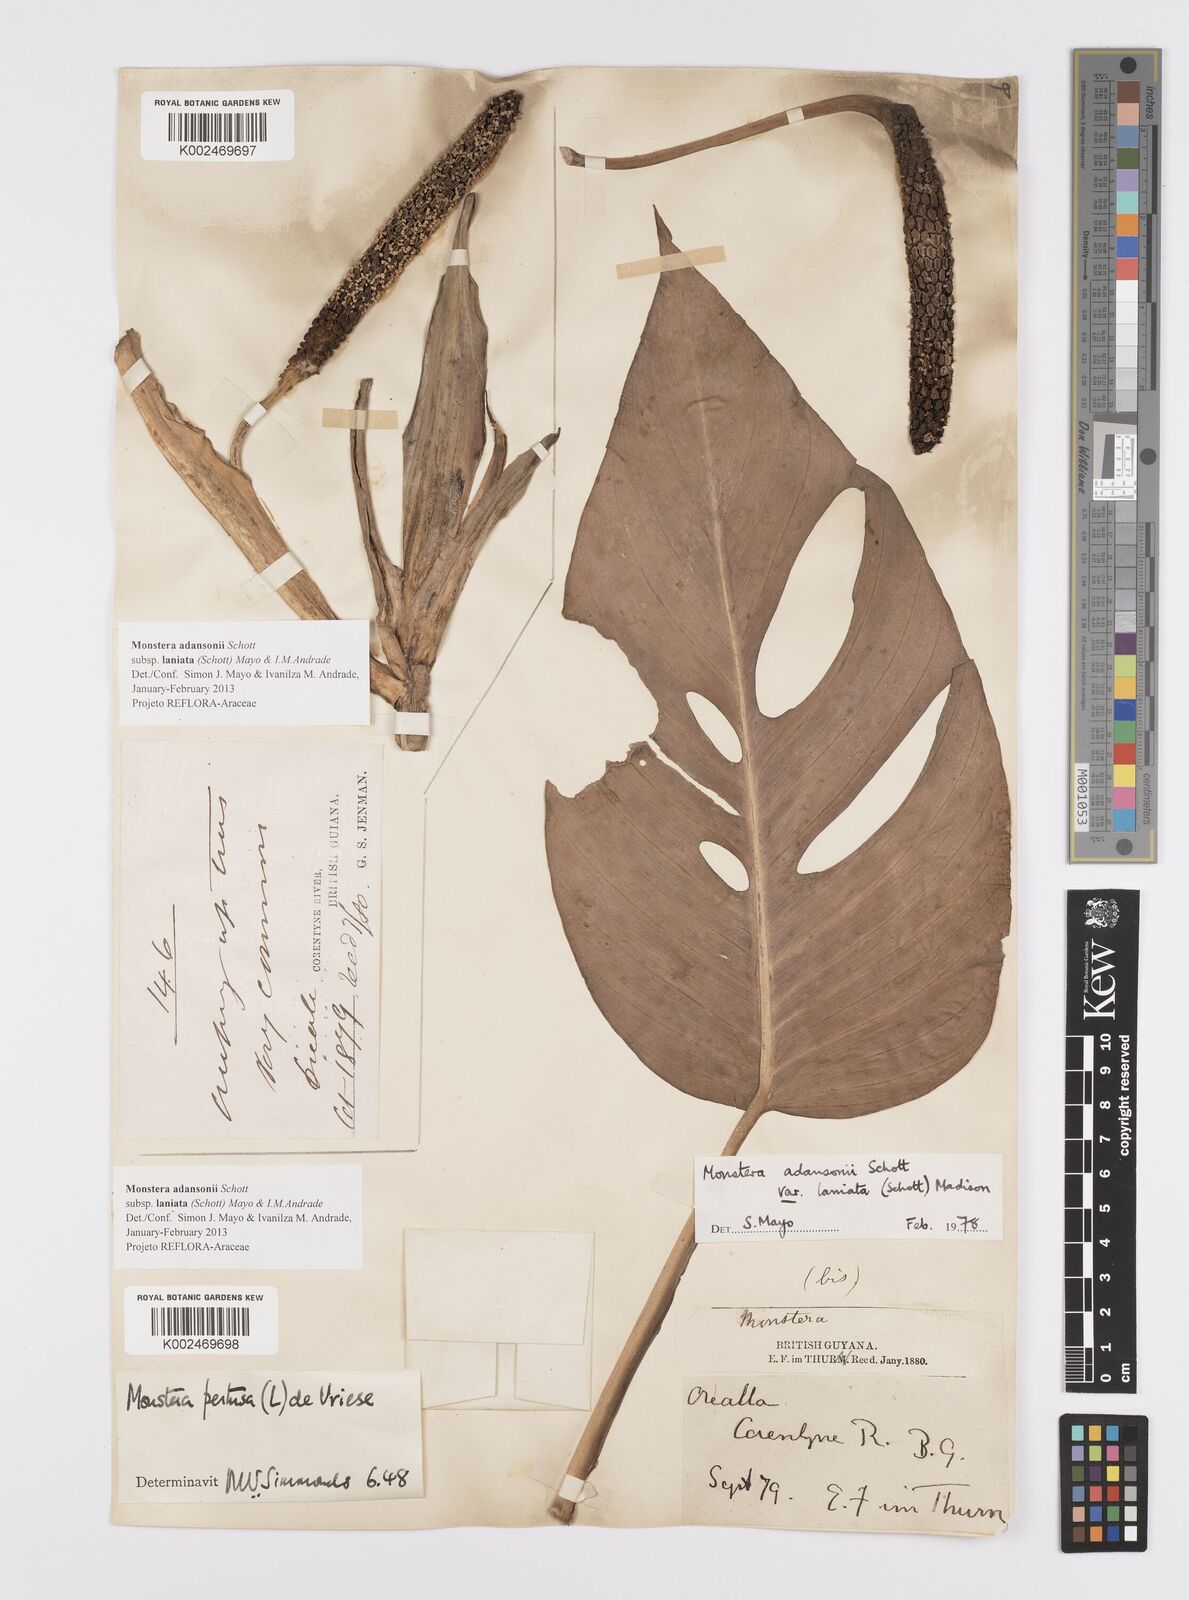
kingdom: Plantae
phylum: Tracheophyta
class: Liliopsida
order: Alismatales
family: Araceae
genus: Monstera
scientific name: Monstera adansonii
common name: Tarovine
